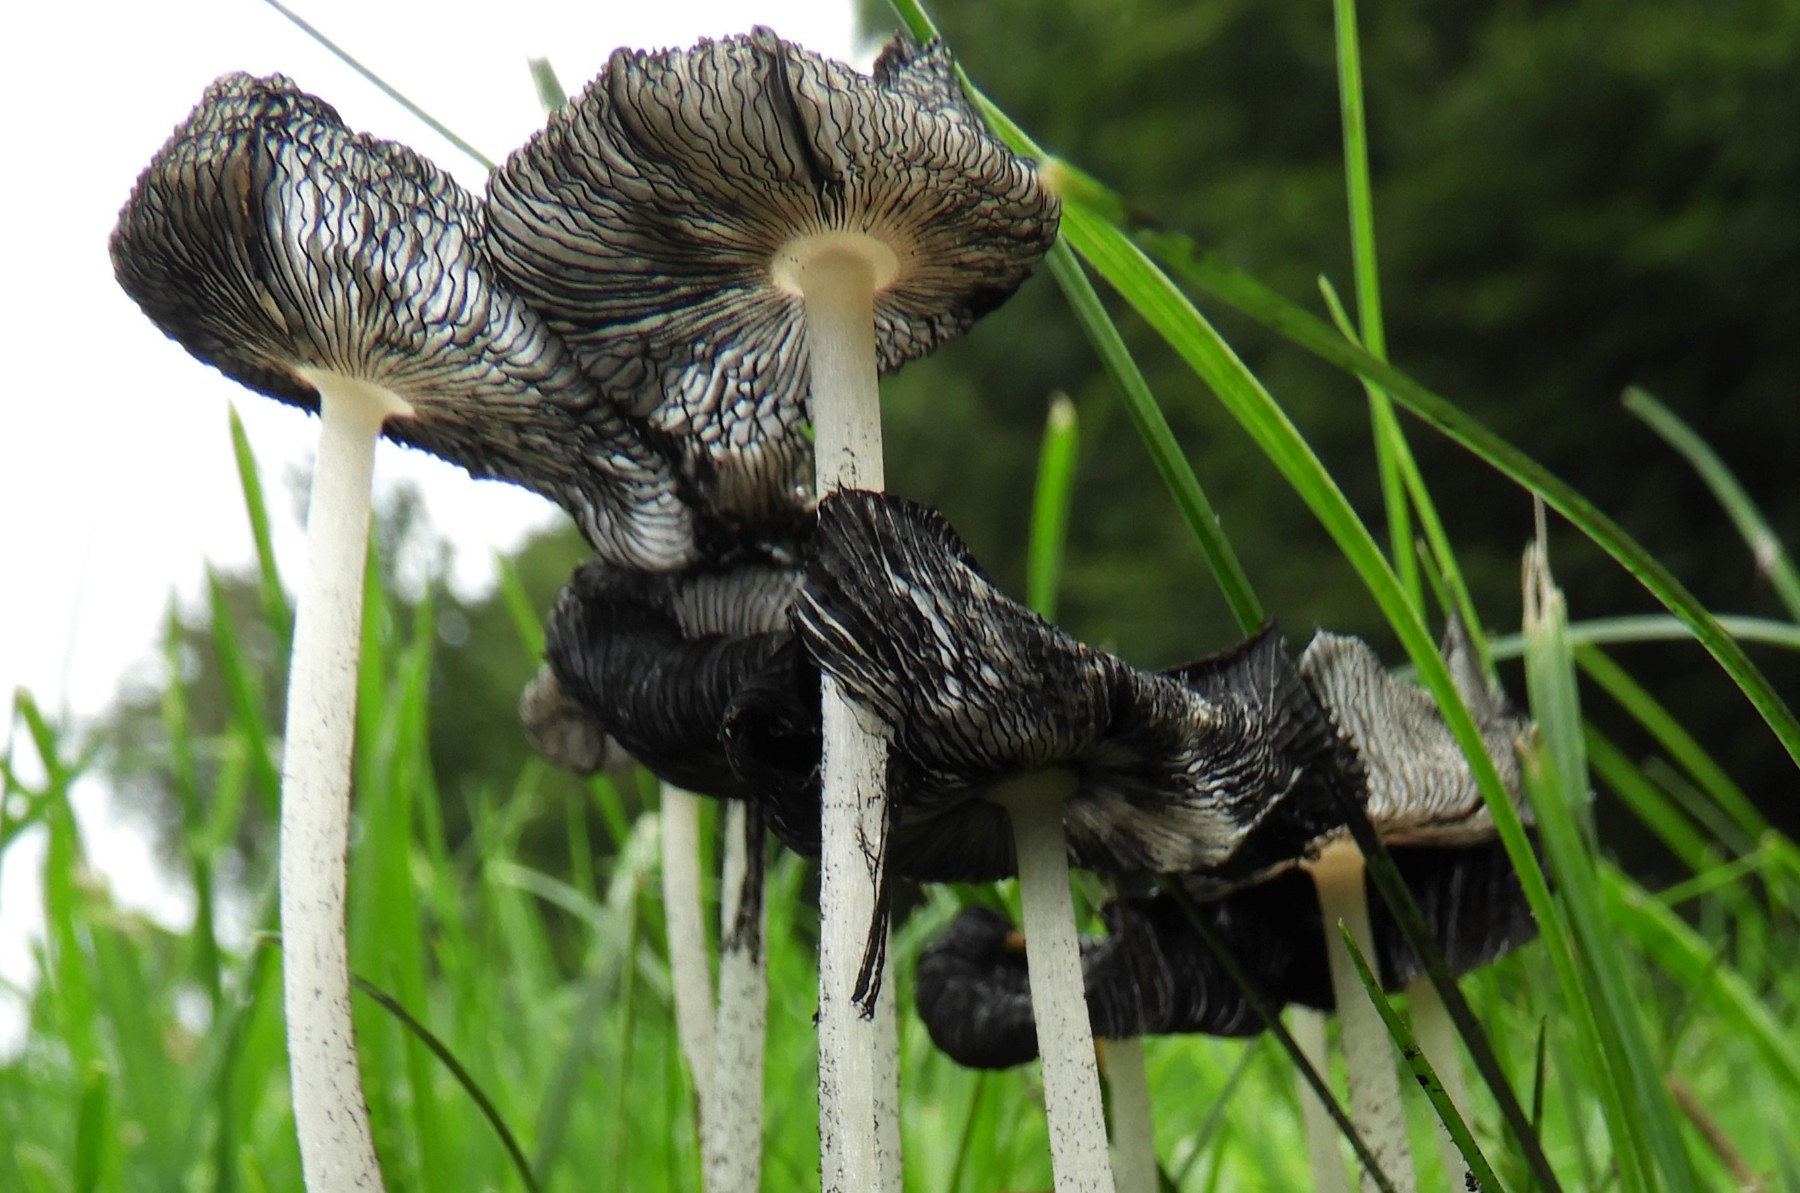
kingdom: Fungi
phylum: Basidiomycota
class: Agaricomycetes
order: Agaricales
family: Psathyrellaceae
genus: Coprinopsis
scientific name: Coprinopsis lagopus
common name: dunstokket blækhat
